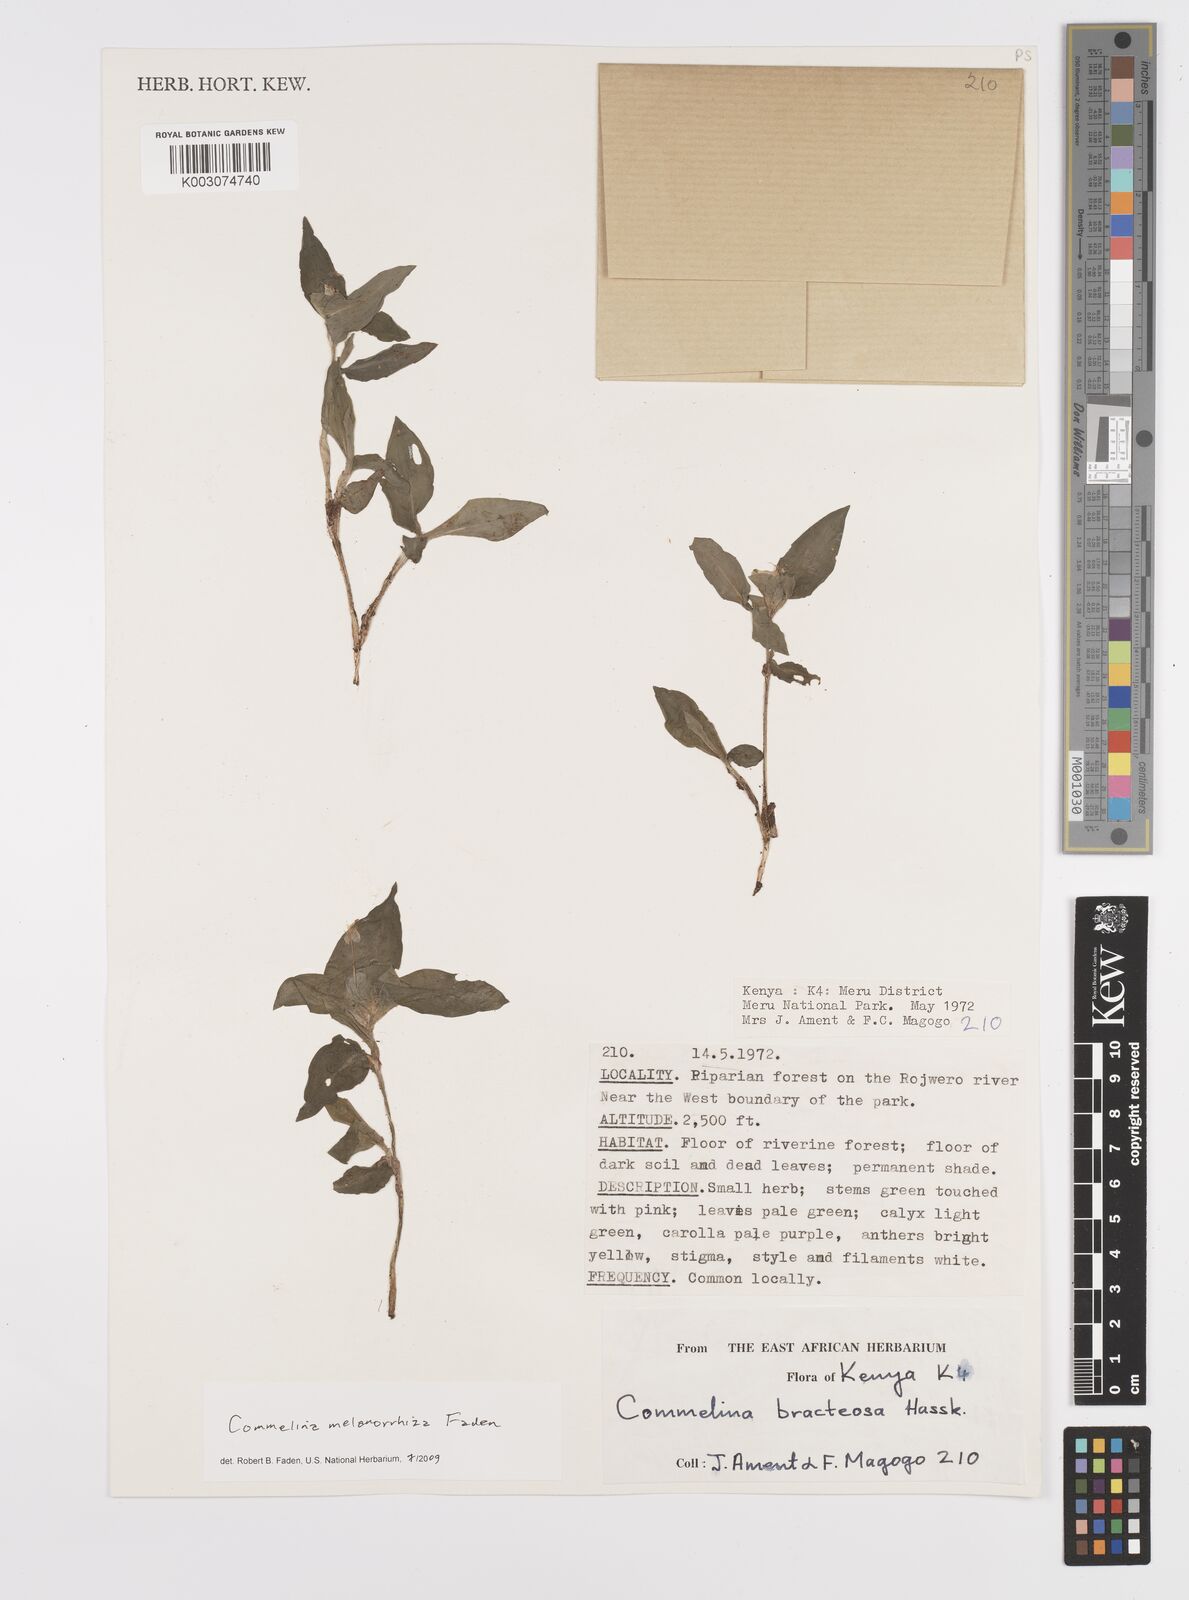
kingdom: Plantae
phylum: Tracheophyta
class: Liliopsida
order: Commelinales
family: Commelinaceae
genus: Commelina
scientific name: Commelina melanorrhiza
